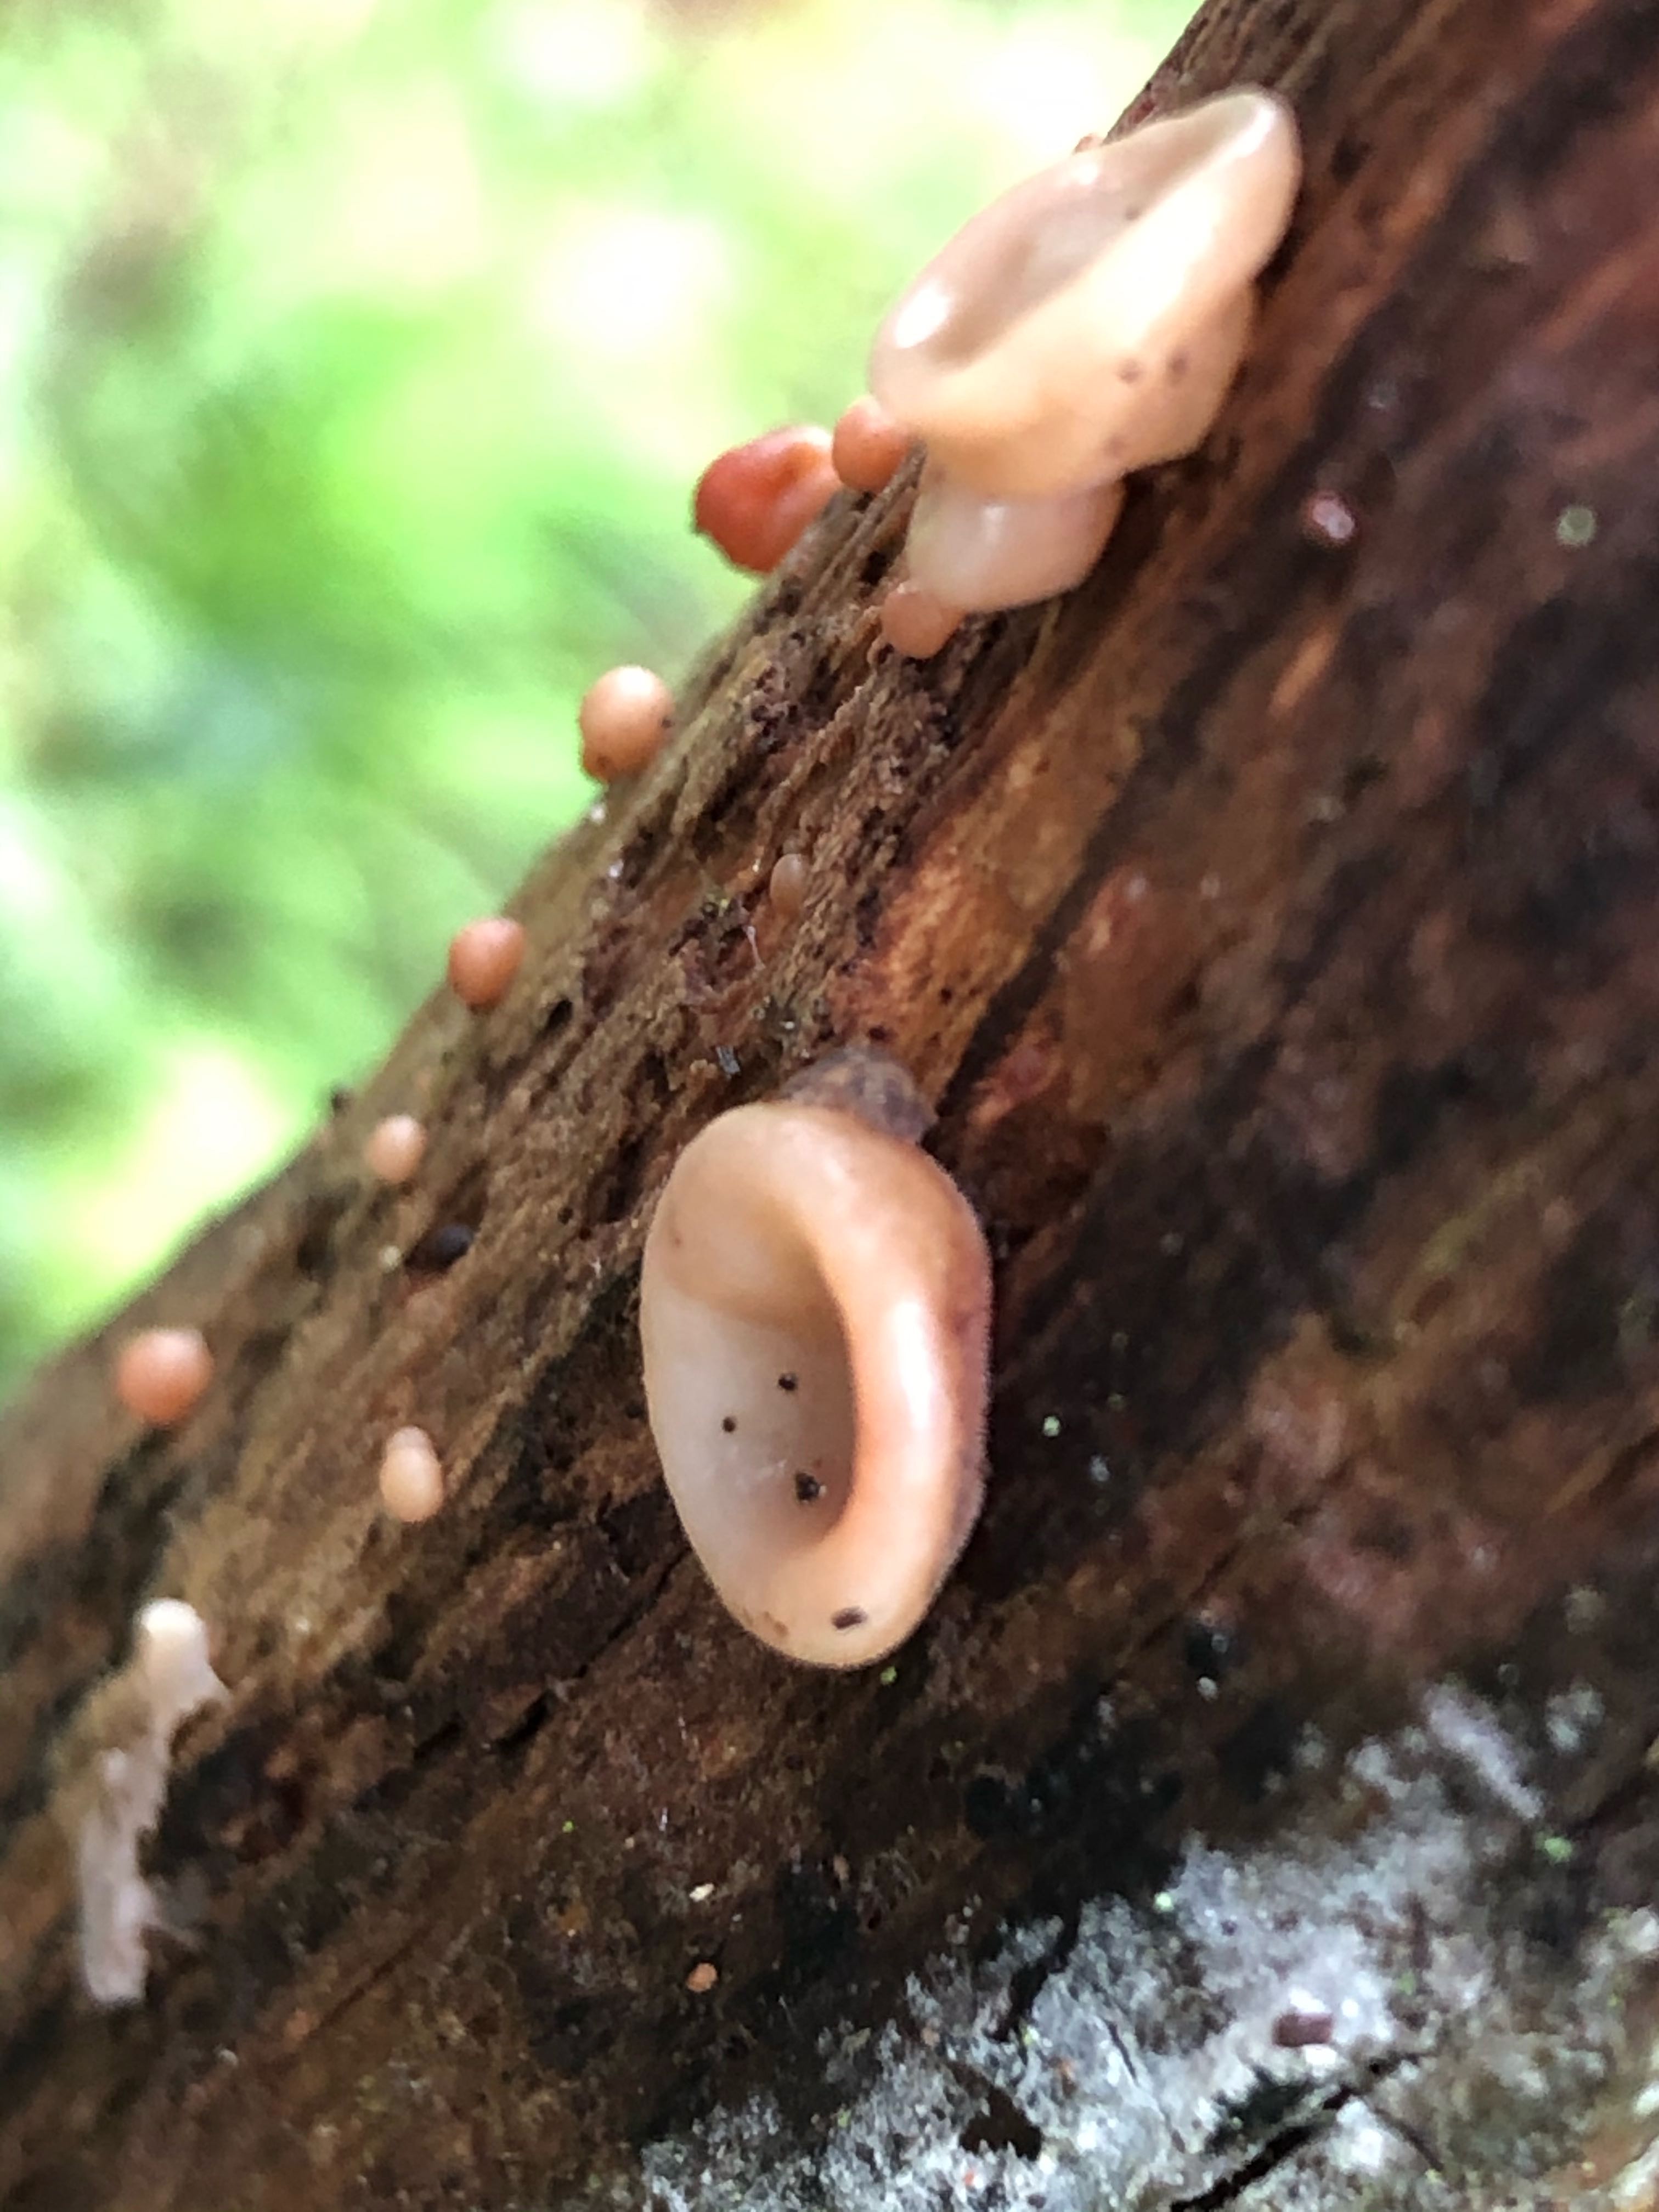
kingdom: Fungi
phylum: Basidiomycota
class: Agaricomycetes
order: Auriculariales
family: Auriculariaceae
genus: Auricularia
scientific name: Auricularia auricula-judae
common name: almindelig judasøre
